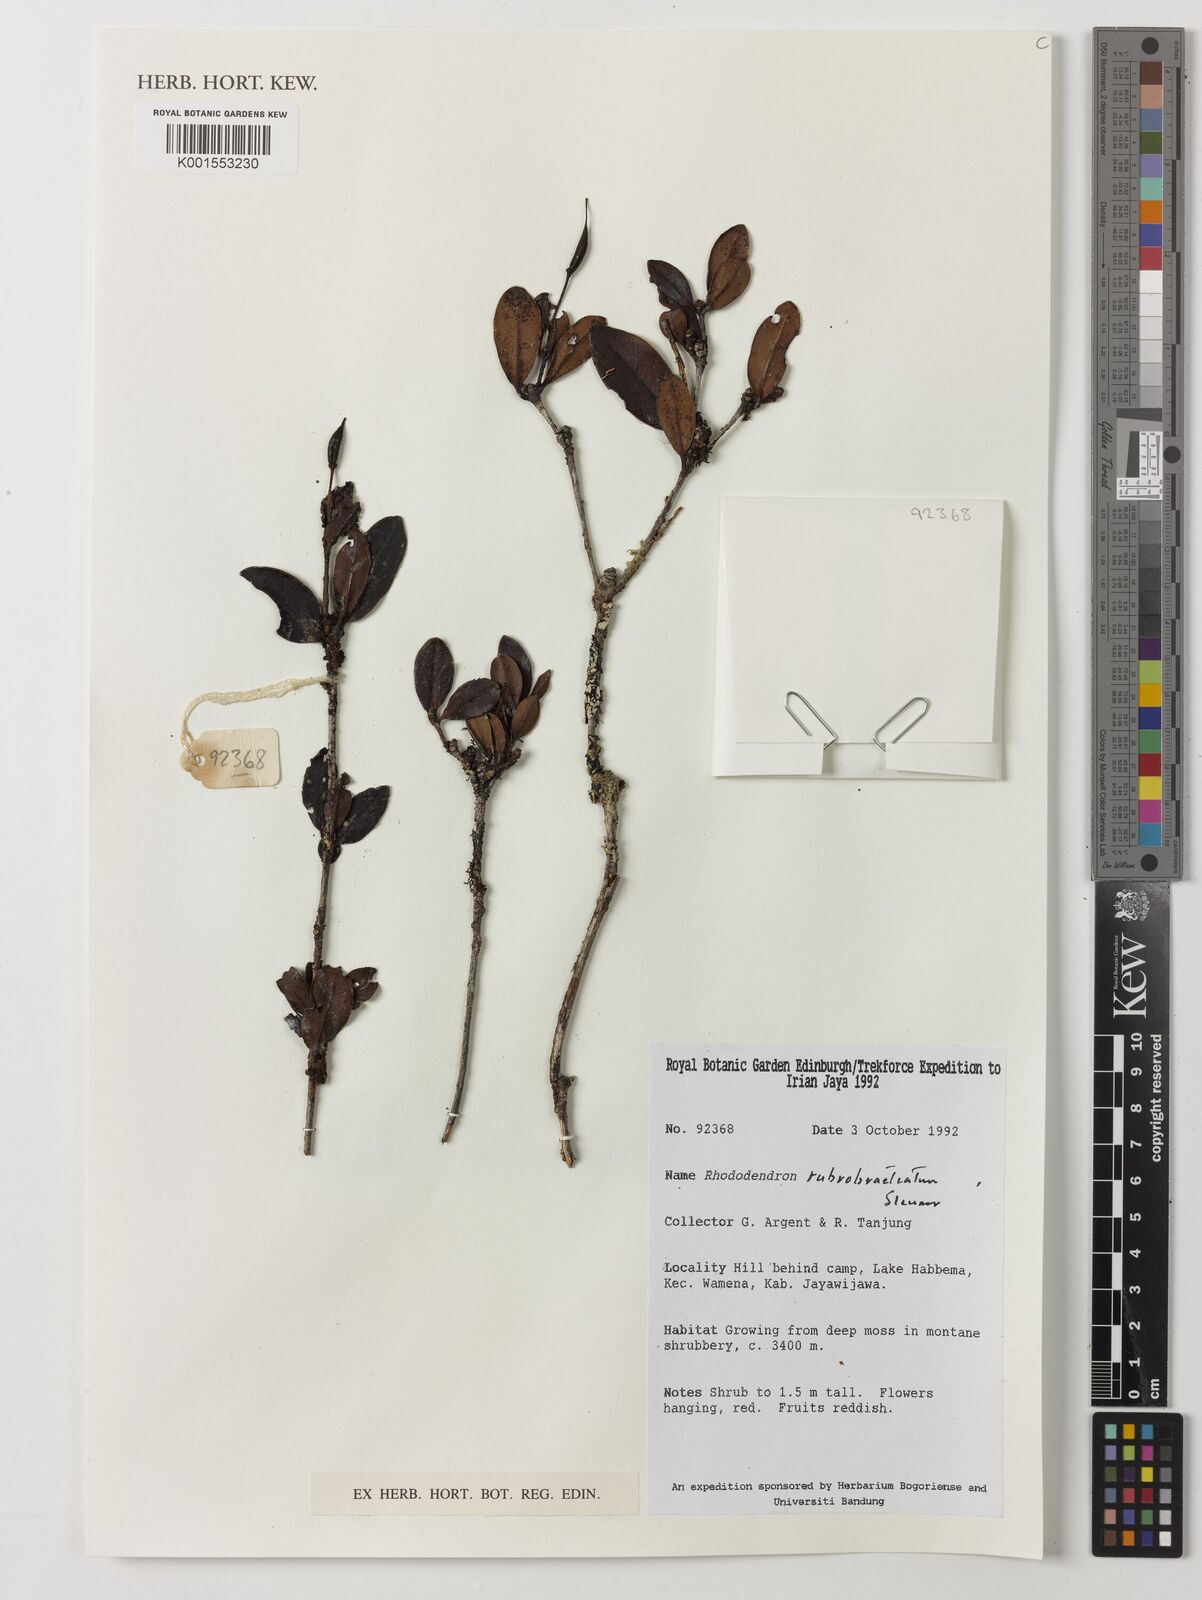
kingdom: Plantae
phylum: Tracheophyta
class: Magnoliopsida
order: Ericales
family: Ericaceae
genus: Rhododendron
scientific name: Rhododendron rubrobracteatum
